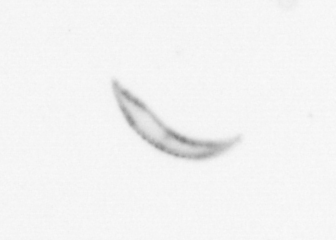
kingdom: Chromista
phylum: Ochrophyta
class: Bacillariophyceae
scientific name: Bacillariophyceae
